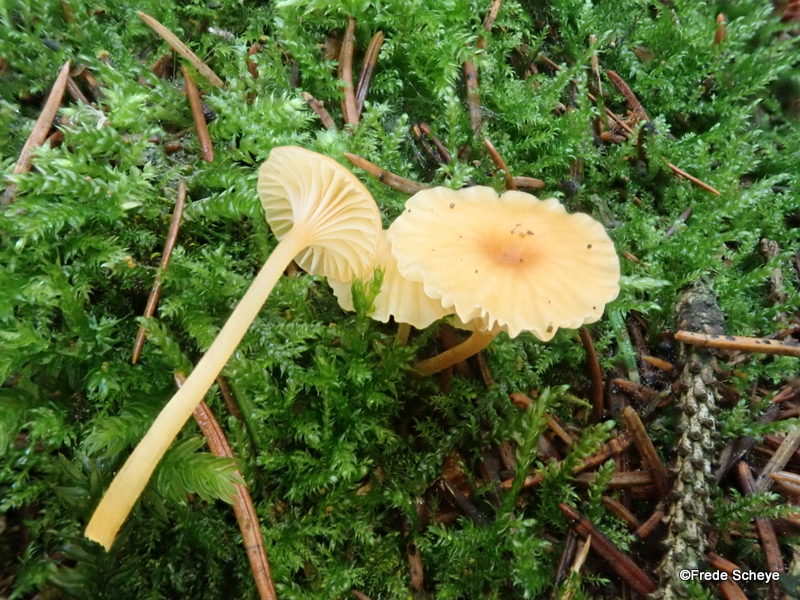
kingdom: Fungi
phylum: Basidiomycota
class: Agaricomycetes
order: Hymenochaetales
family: Rickenellaceae
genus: Rickenella
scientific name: Rickenella fibula
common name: orange mosnavlehat
